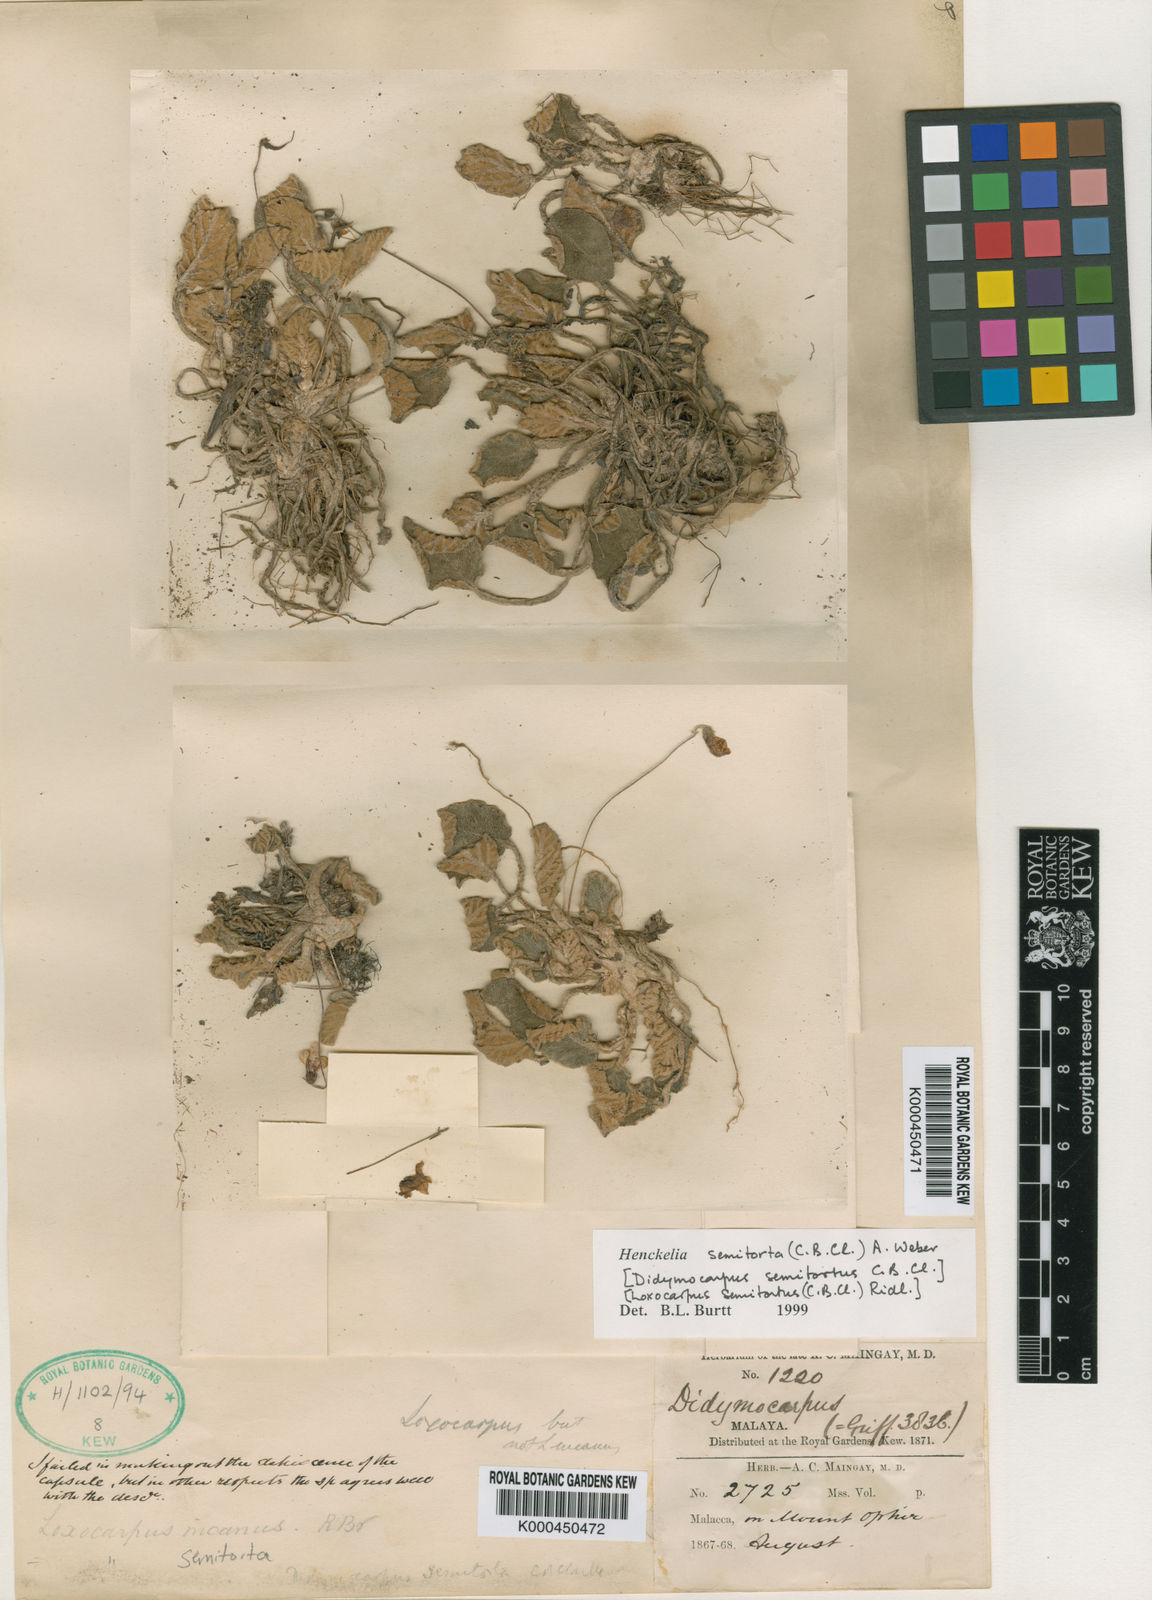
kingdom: Plantae
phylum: Tracheophyta
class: Magnoliopsida
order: Lamiales
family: Gesneriaceae
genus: Loxocarpus
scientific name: Loxocarpus semitortus
